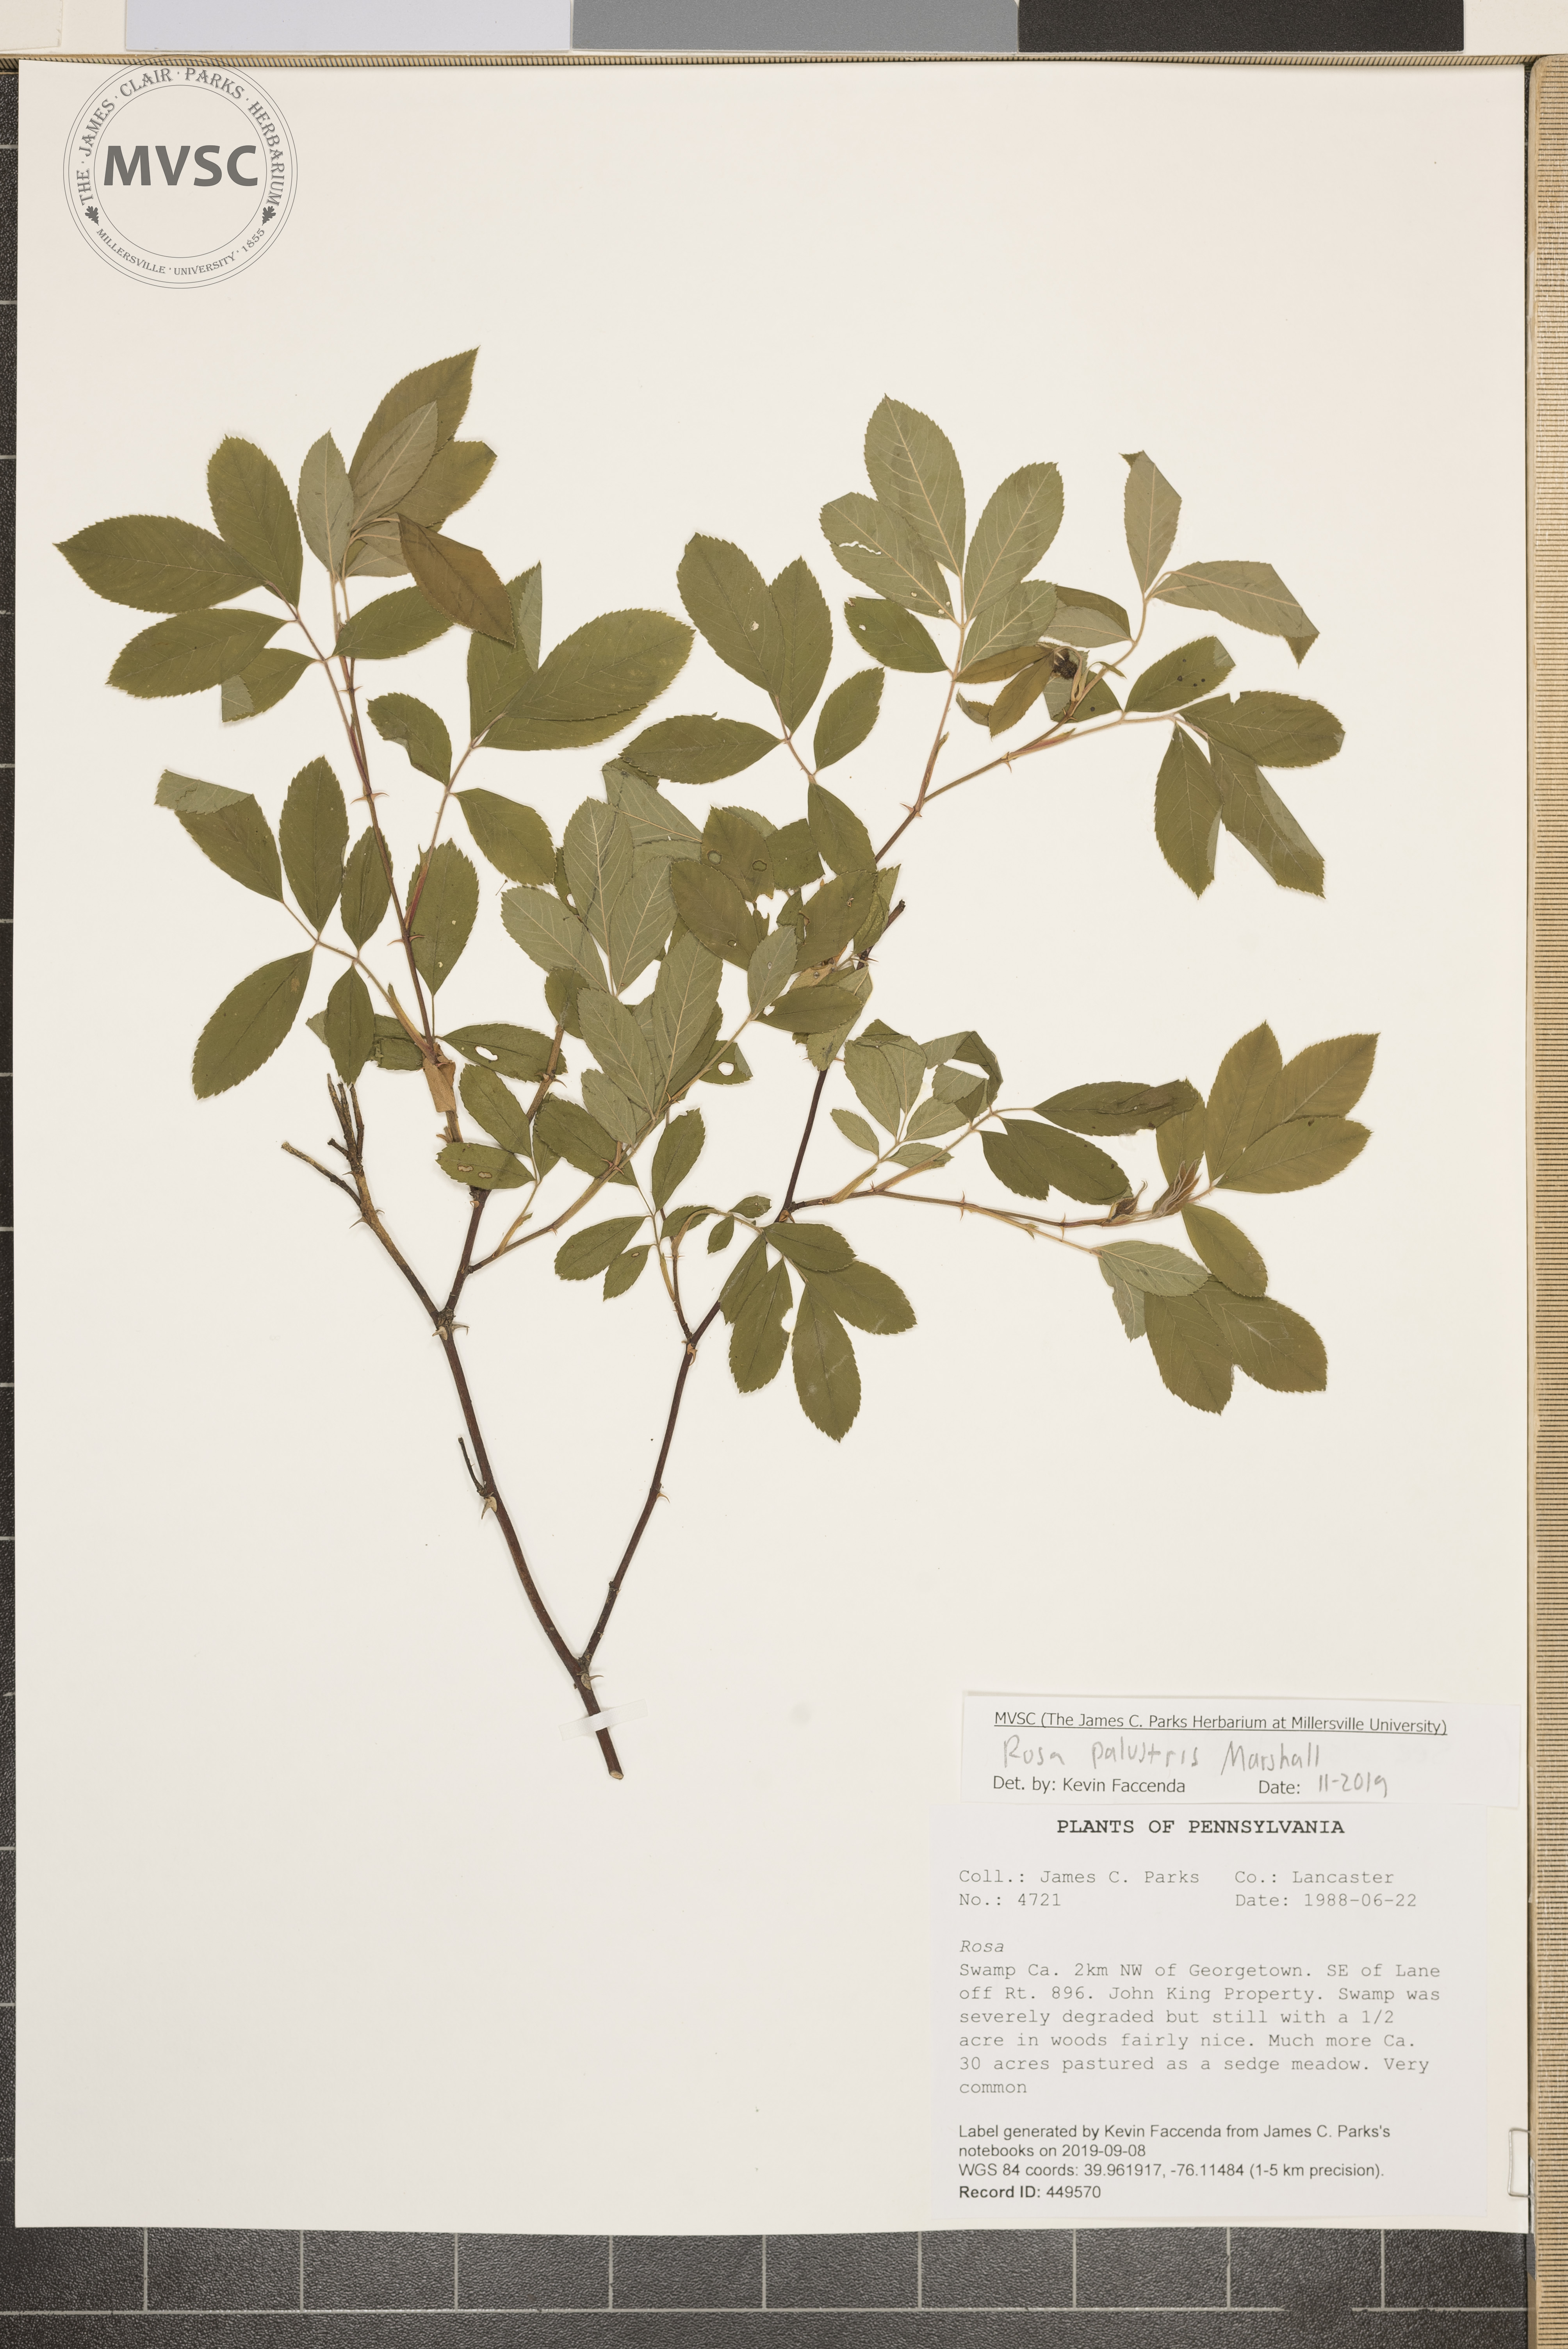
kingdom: Plantae
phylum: Tracheophyta
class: Magnoliopsida
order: Rosales
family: Rosaceae
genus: Rosa
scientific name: Rosa palustris
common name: Swamp rose
